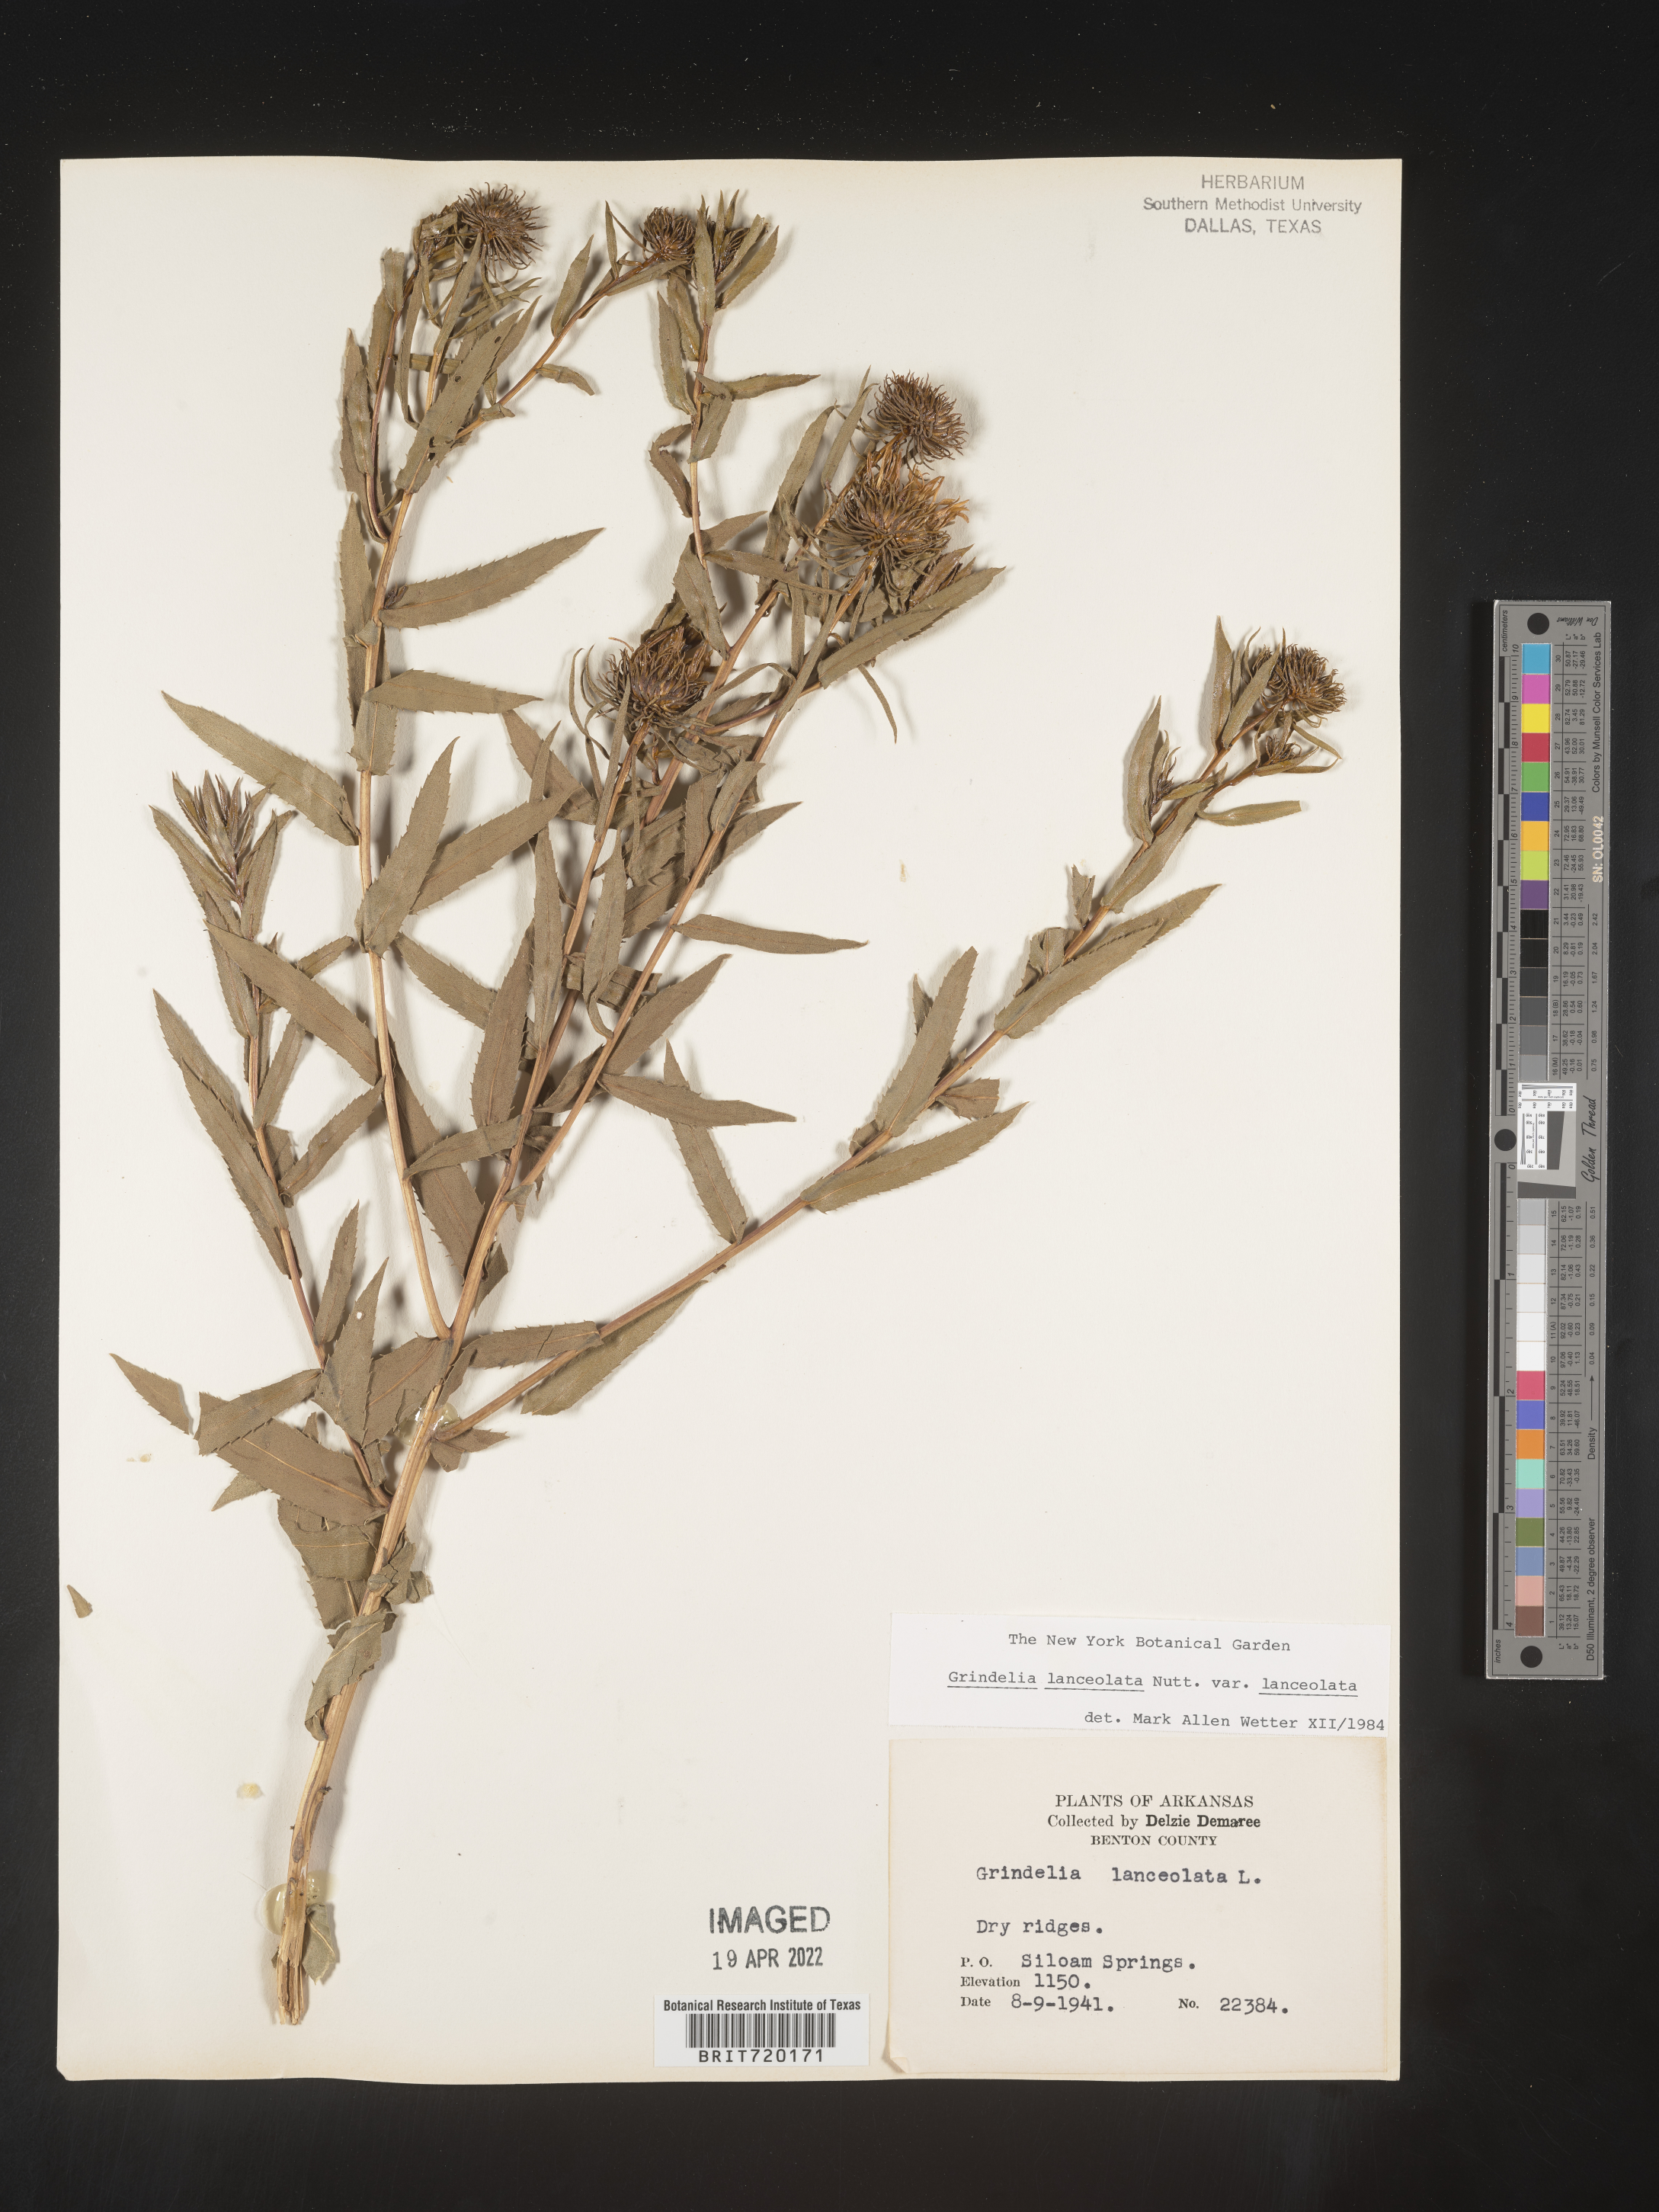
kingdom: Plantae
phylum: Tracheophyta
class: Magnoliopsida
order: Asterales
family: Asteraceae
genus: Grindelia
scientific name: Grindelia lanceolata
